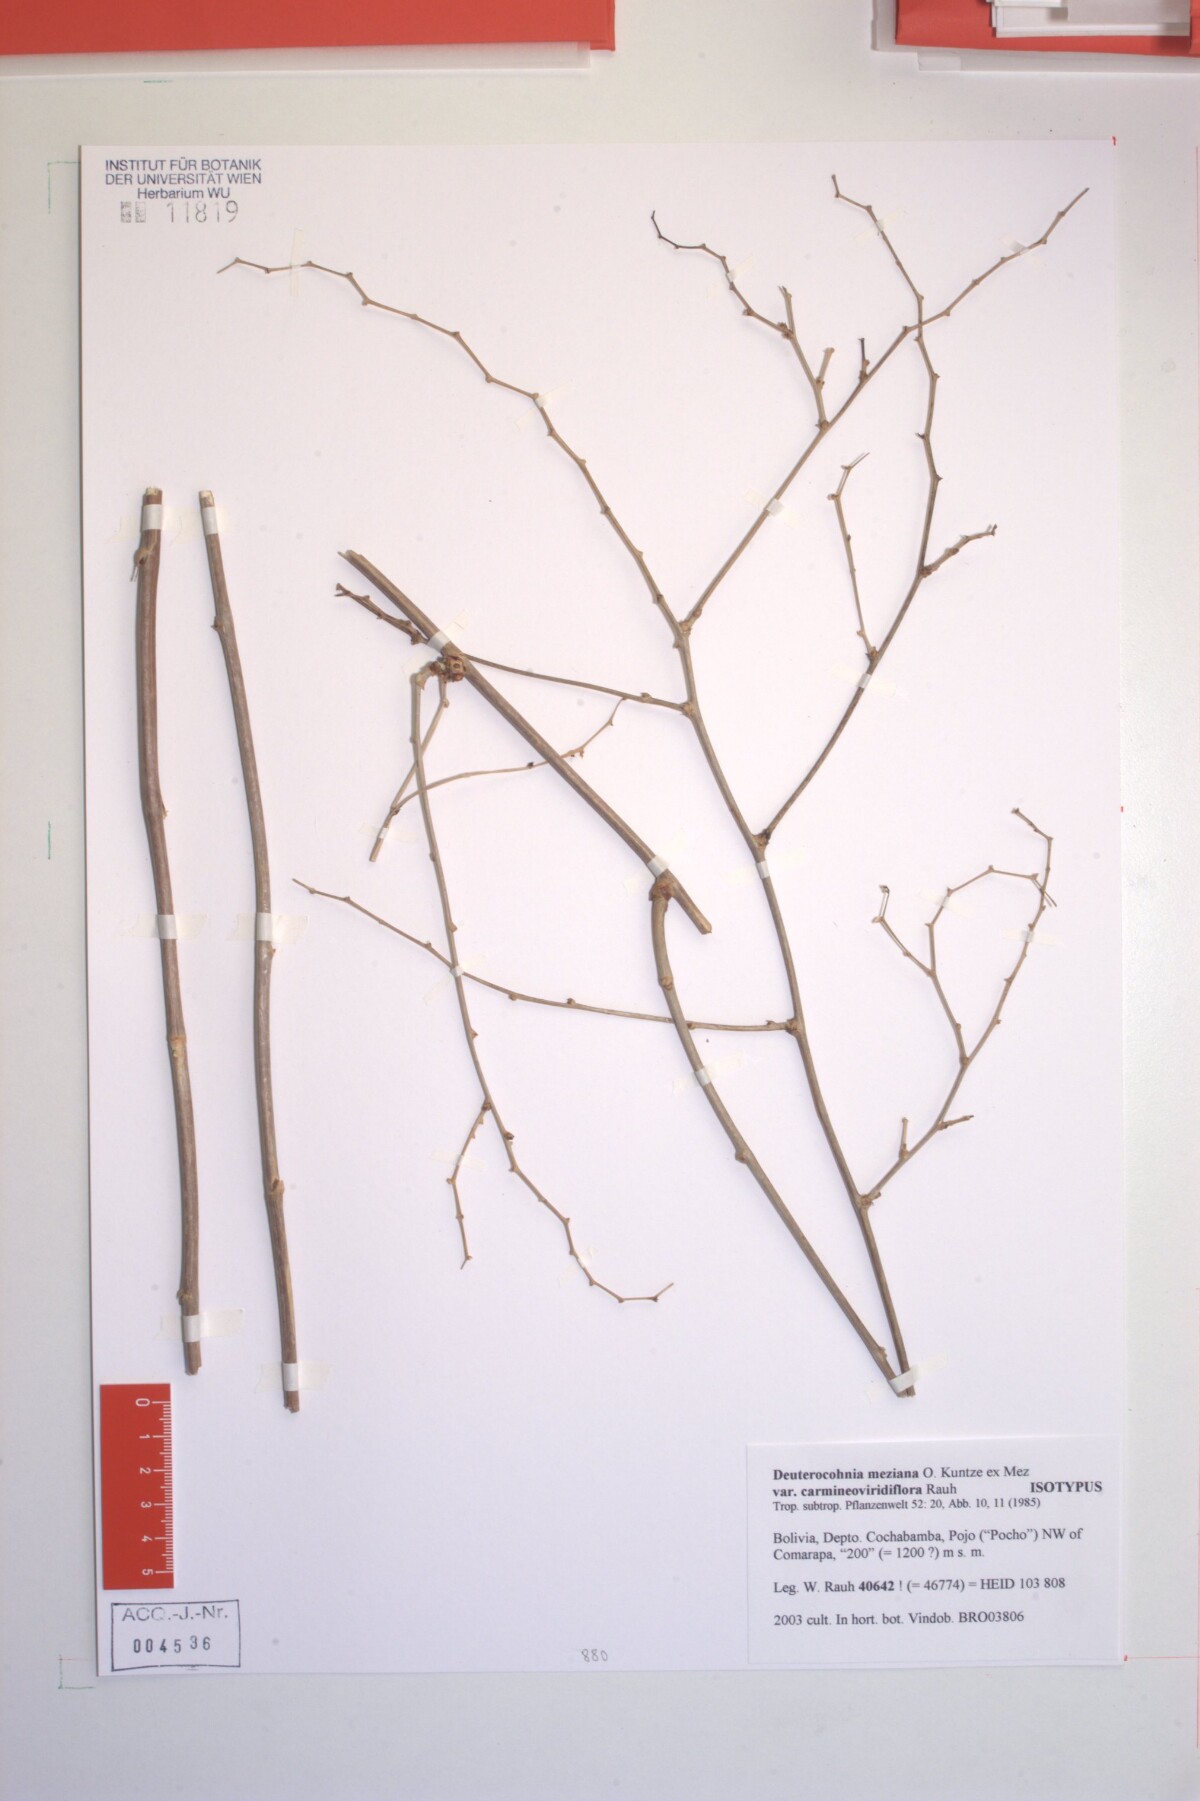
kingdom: Plantae
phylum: Tracheophyta
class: Liliopsida
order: Poales
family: Bromeliaceae
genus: Deuterocohnia
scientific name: Deuterocohnia meziana
